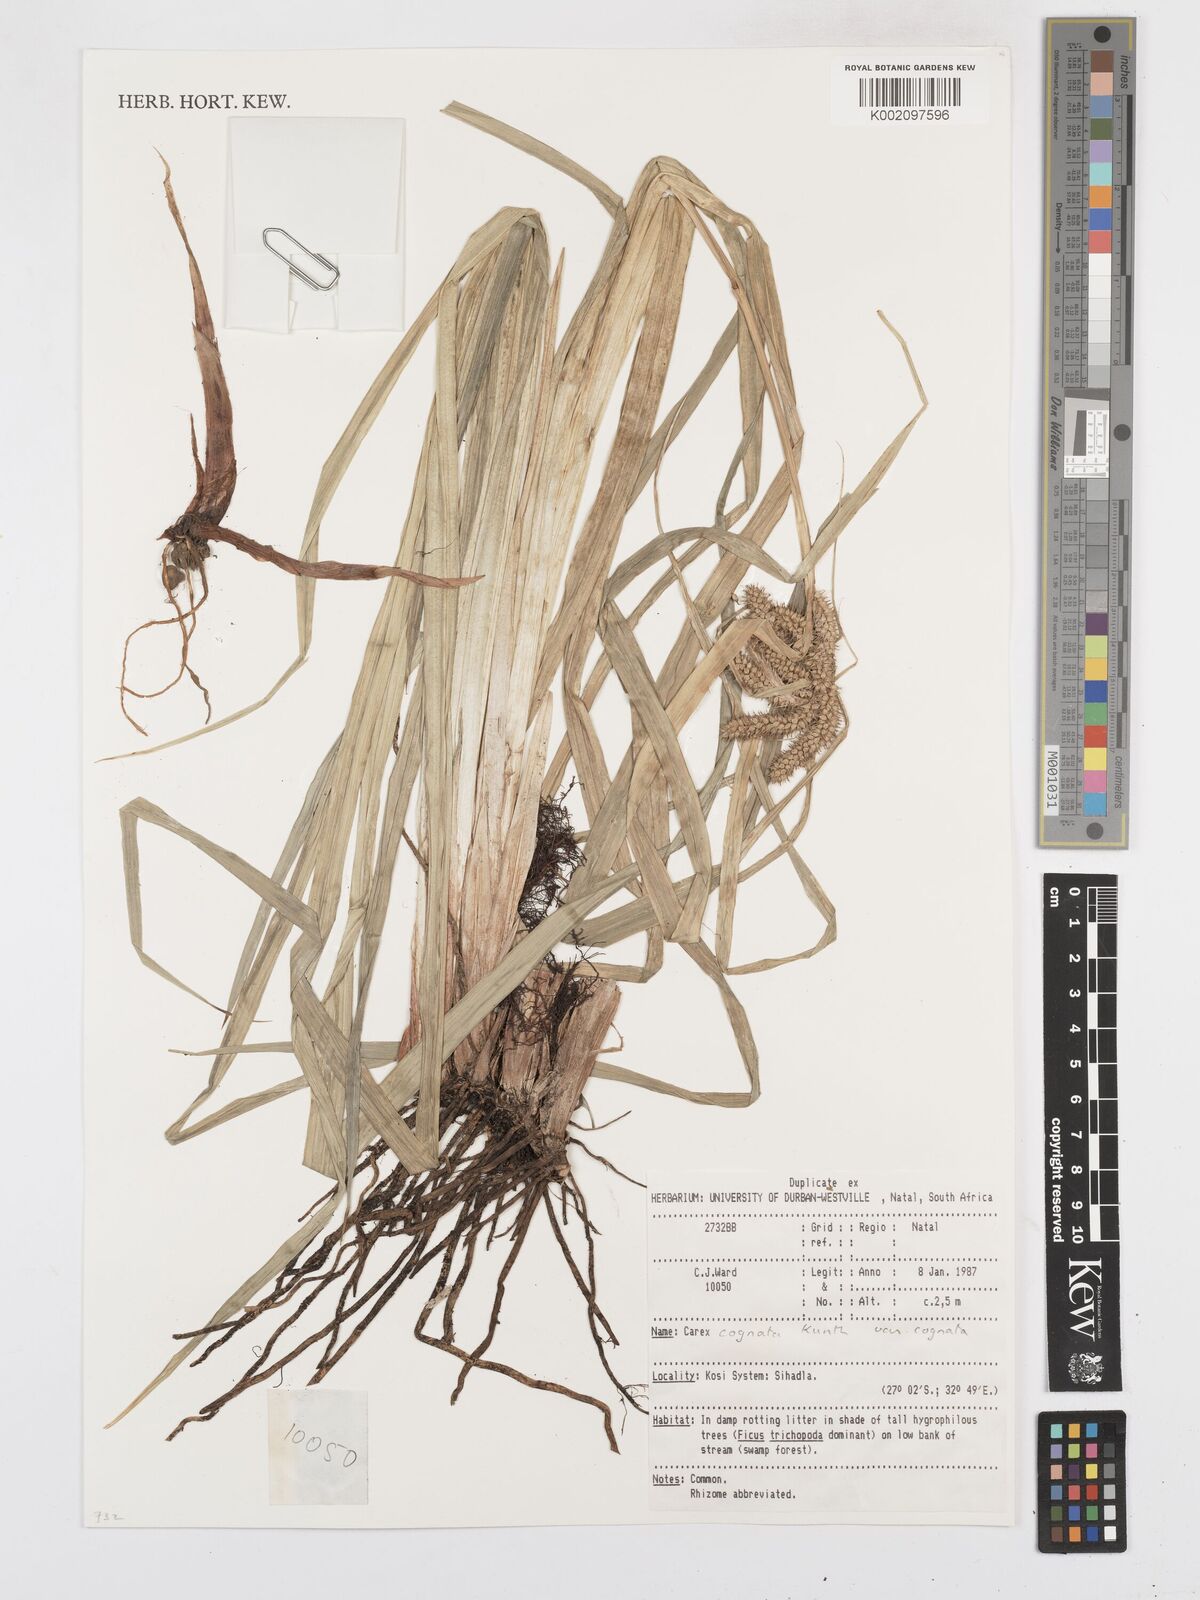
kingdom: Plantae
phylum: Tracheophyta
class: Liliopsida
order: Poales
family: Cyperaceae
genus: Carex
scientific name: Carex cognata
